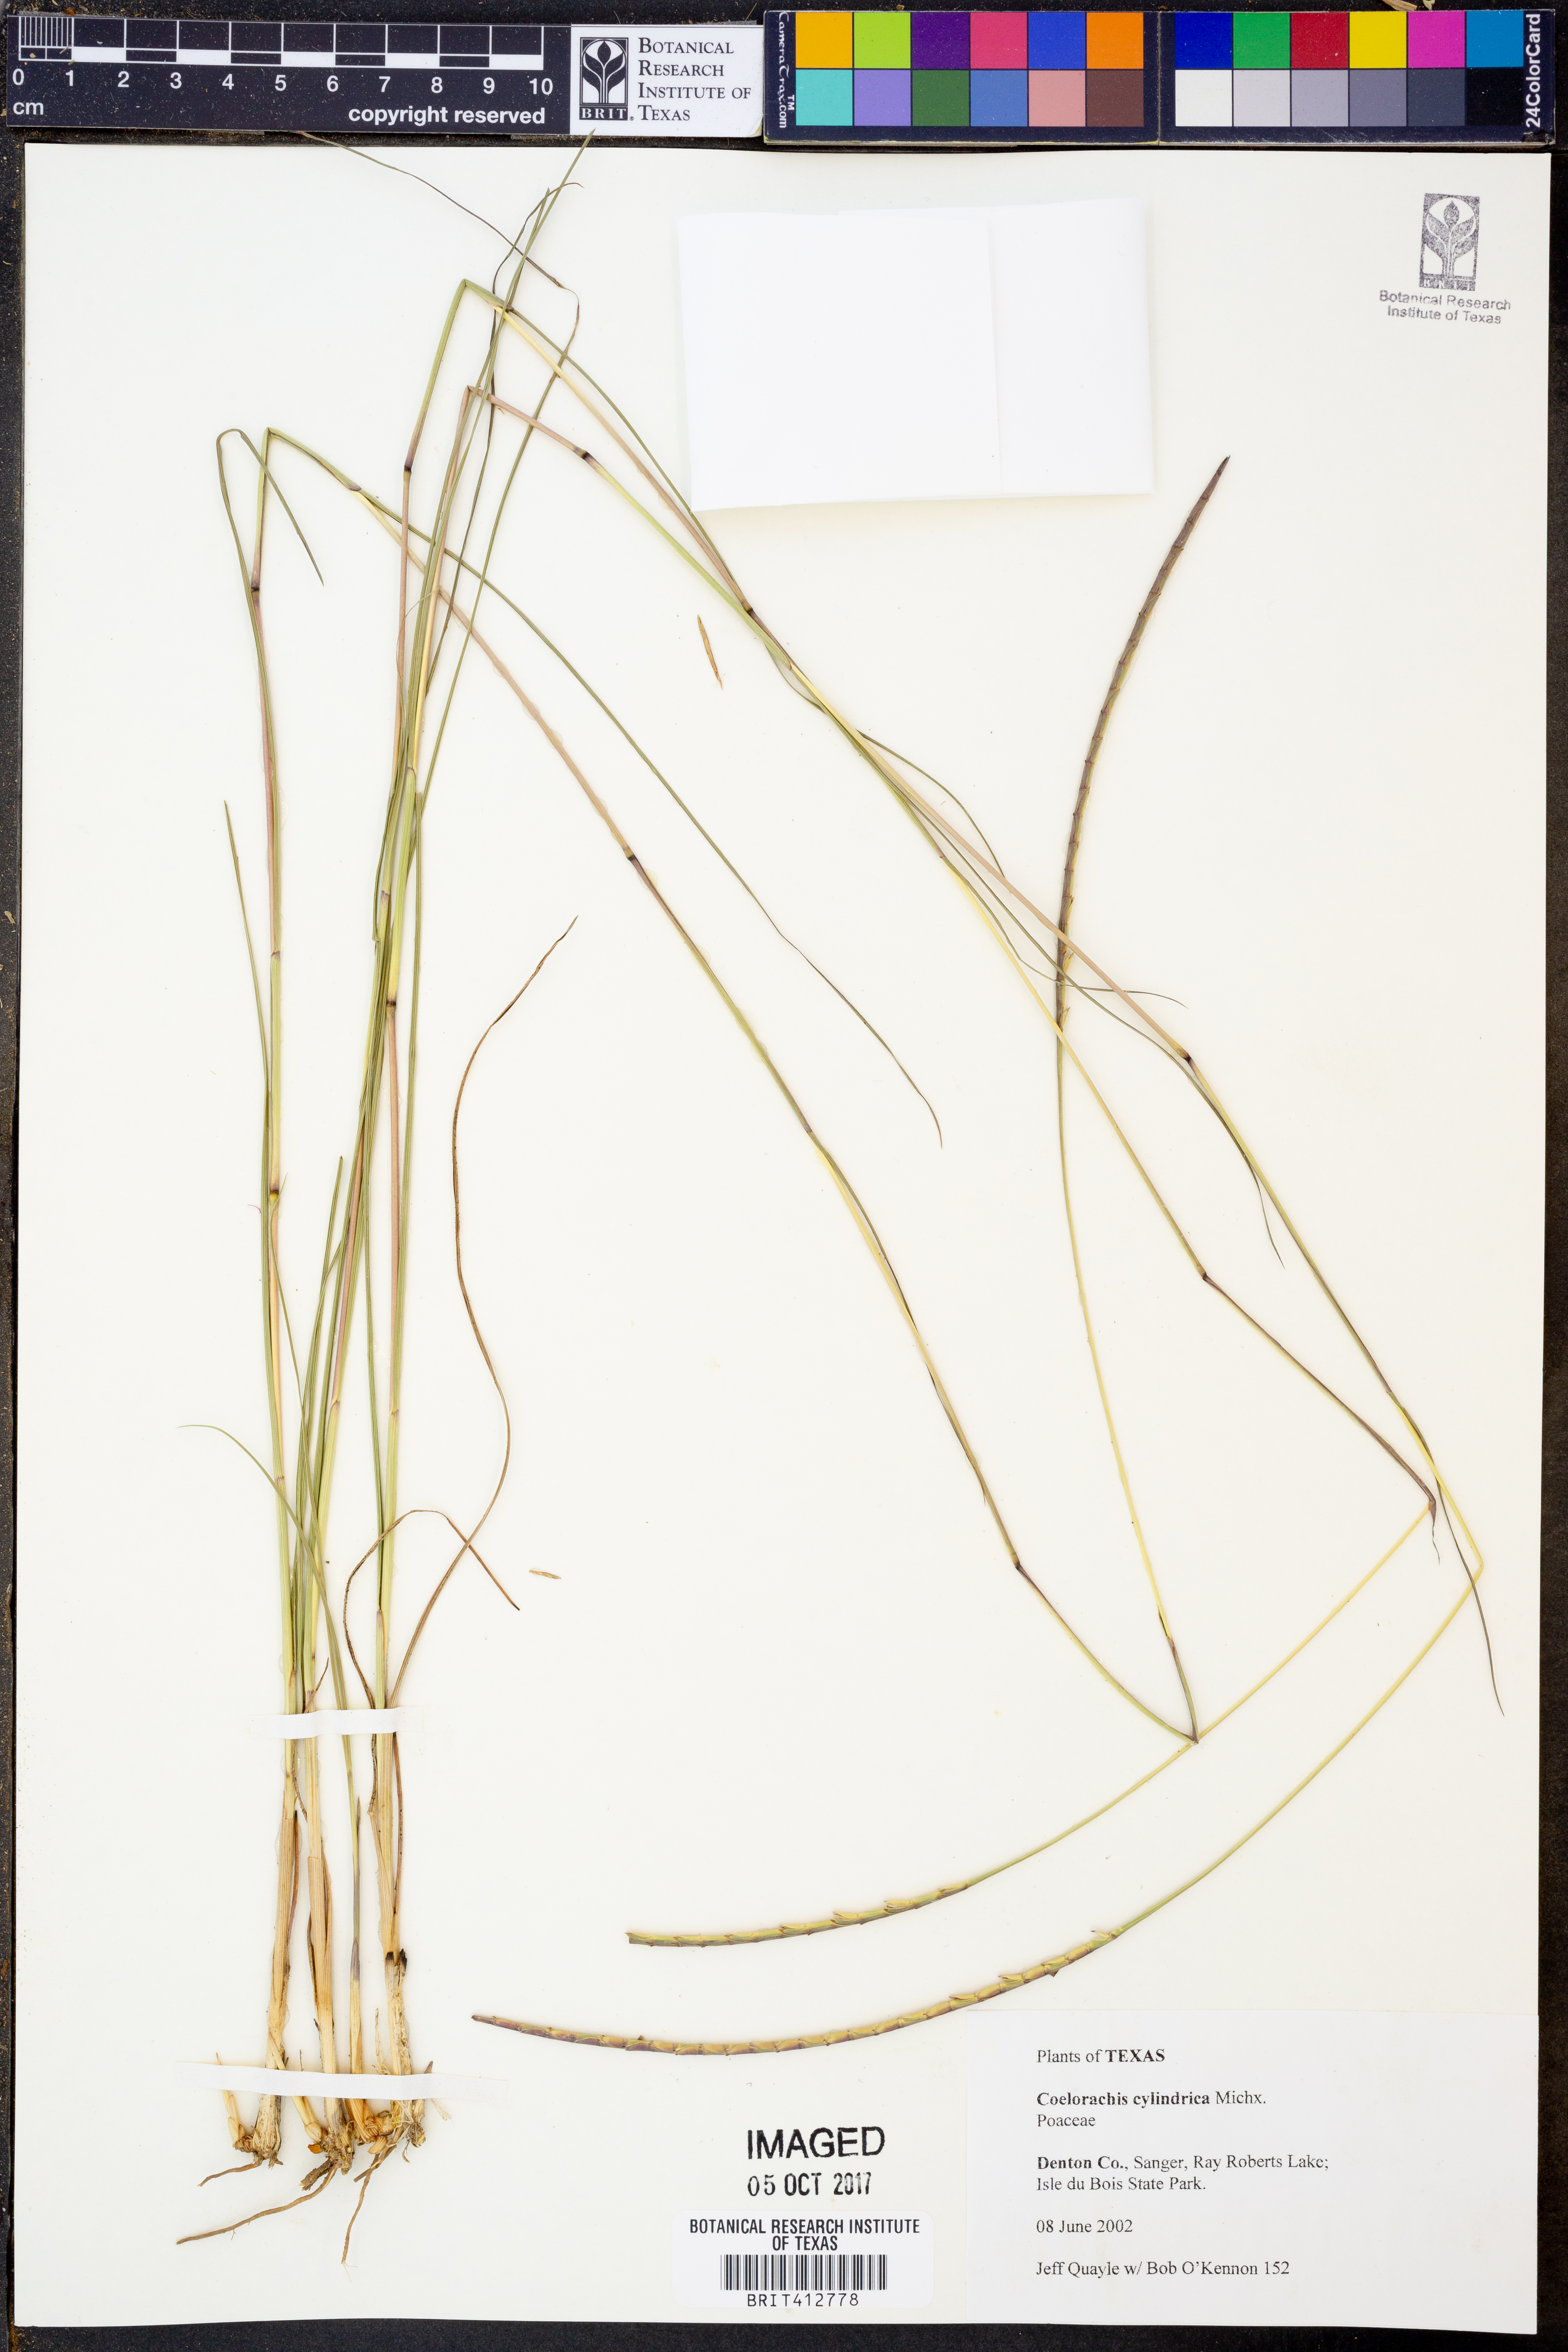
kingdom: Plantae
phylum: Tracheophyta
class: Liliopsida
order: Poales
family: Poaceae
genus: Rottboellia
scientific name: Rottboellia campestris
